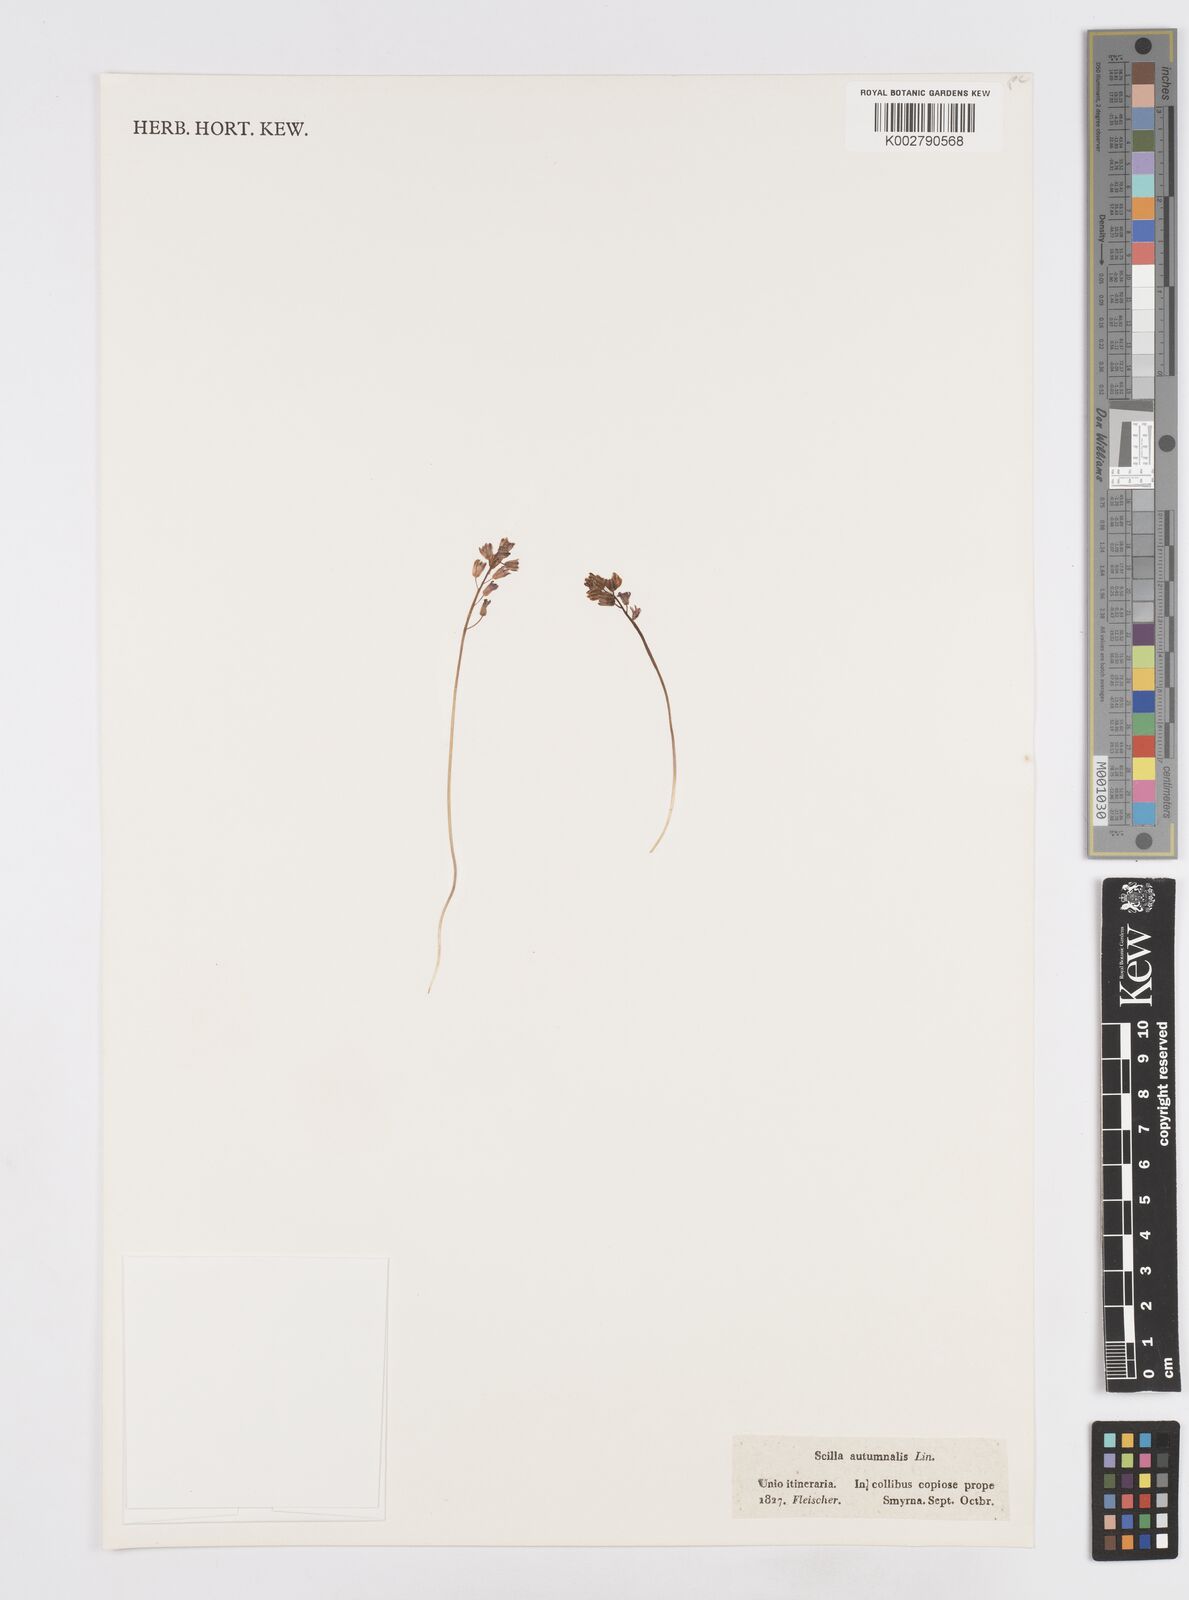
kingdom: Plantae
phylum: Tracheophyta
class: Liliopsida
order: Asparagales
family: Asparagaceae
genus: Prospero
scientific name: Prospero autumnale
